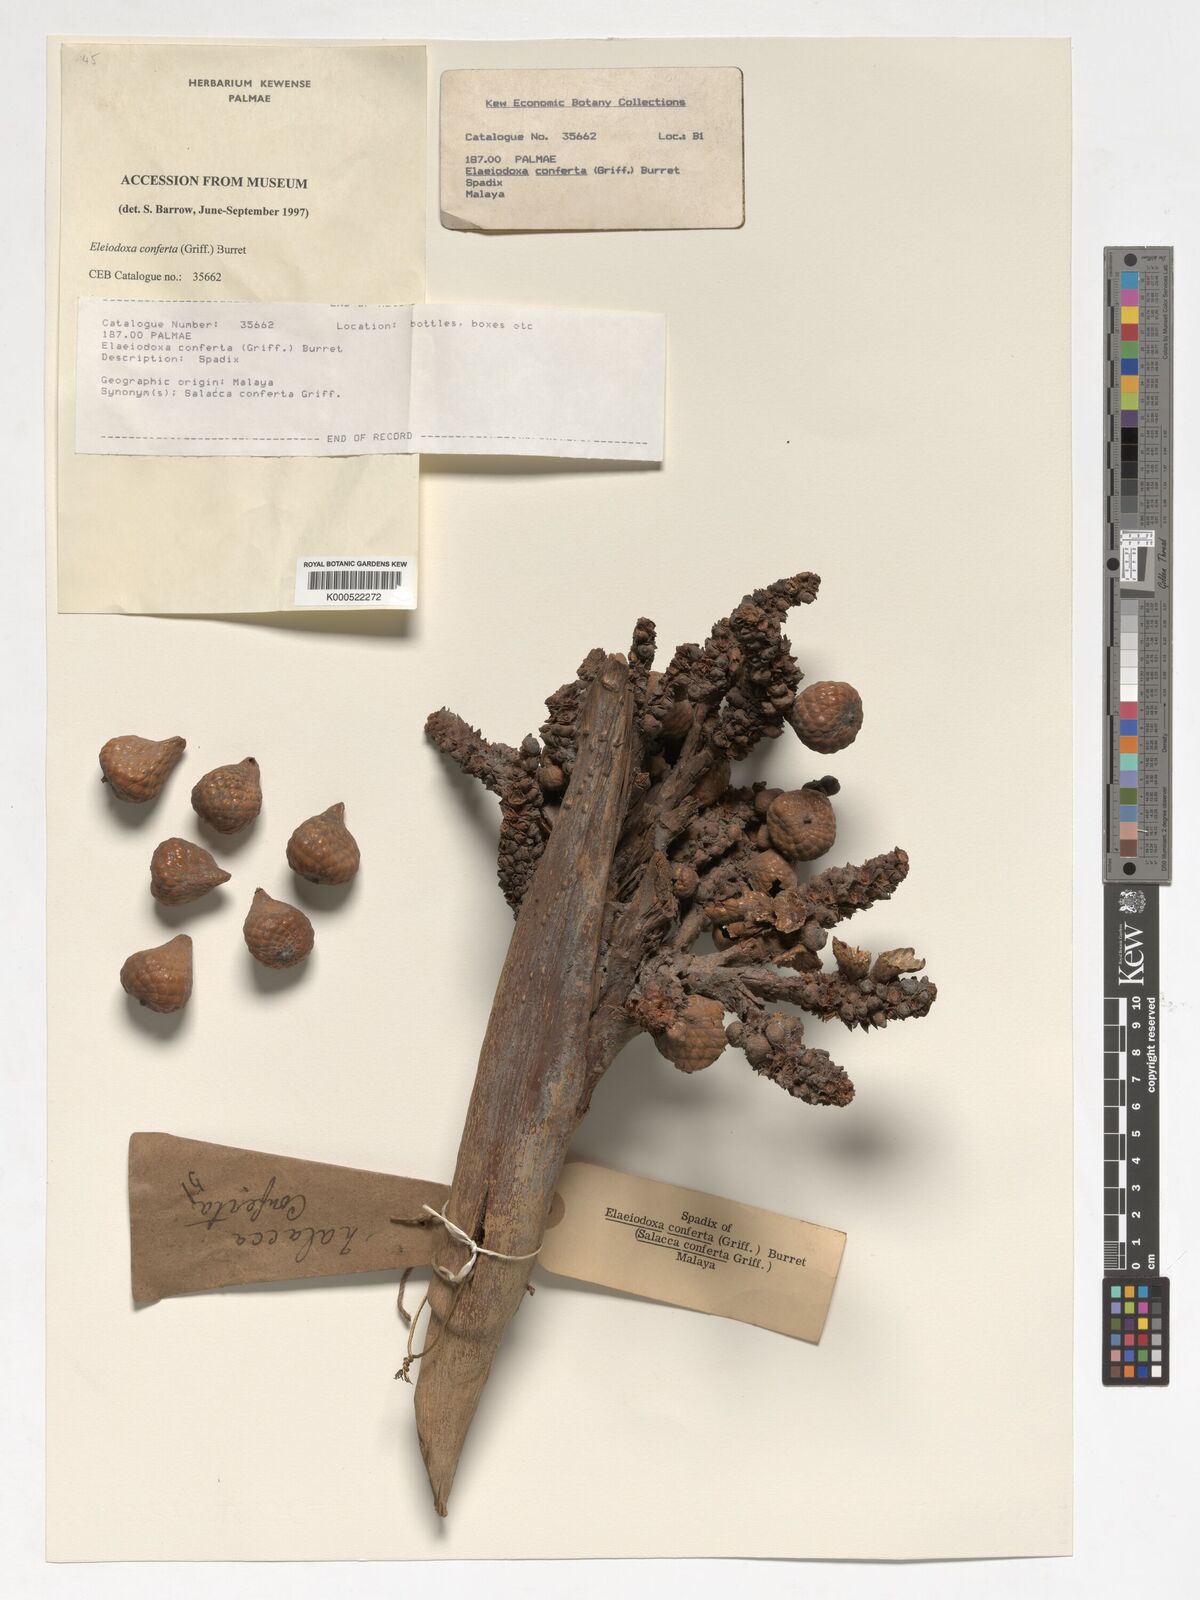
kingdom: Plantae
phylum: Tracheophyta
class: Liliopsida
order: Arecales
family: Arecaceae
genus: Eleiodoxa
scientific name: Eleiodoxa conferta
